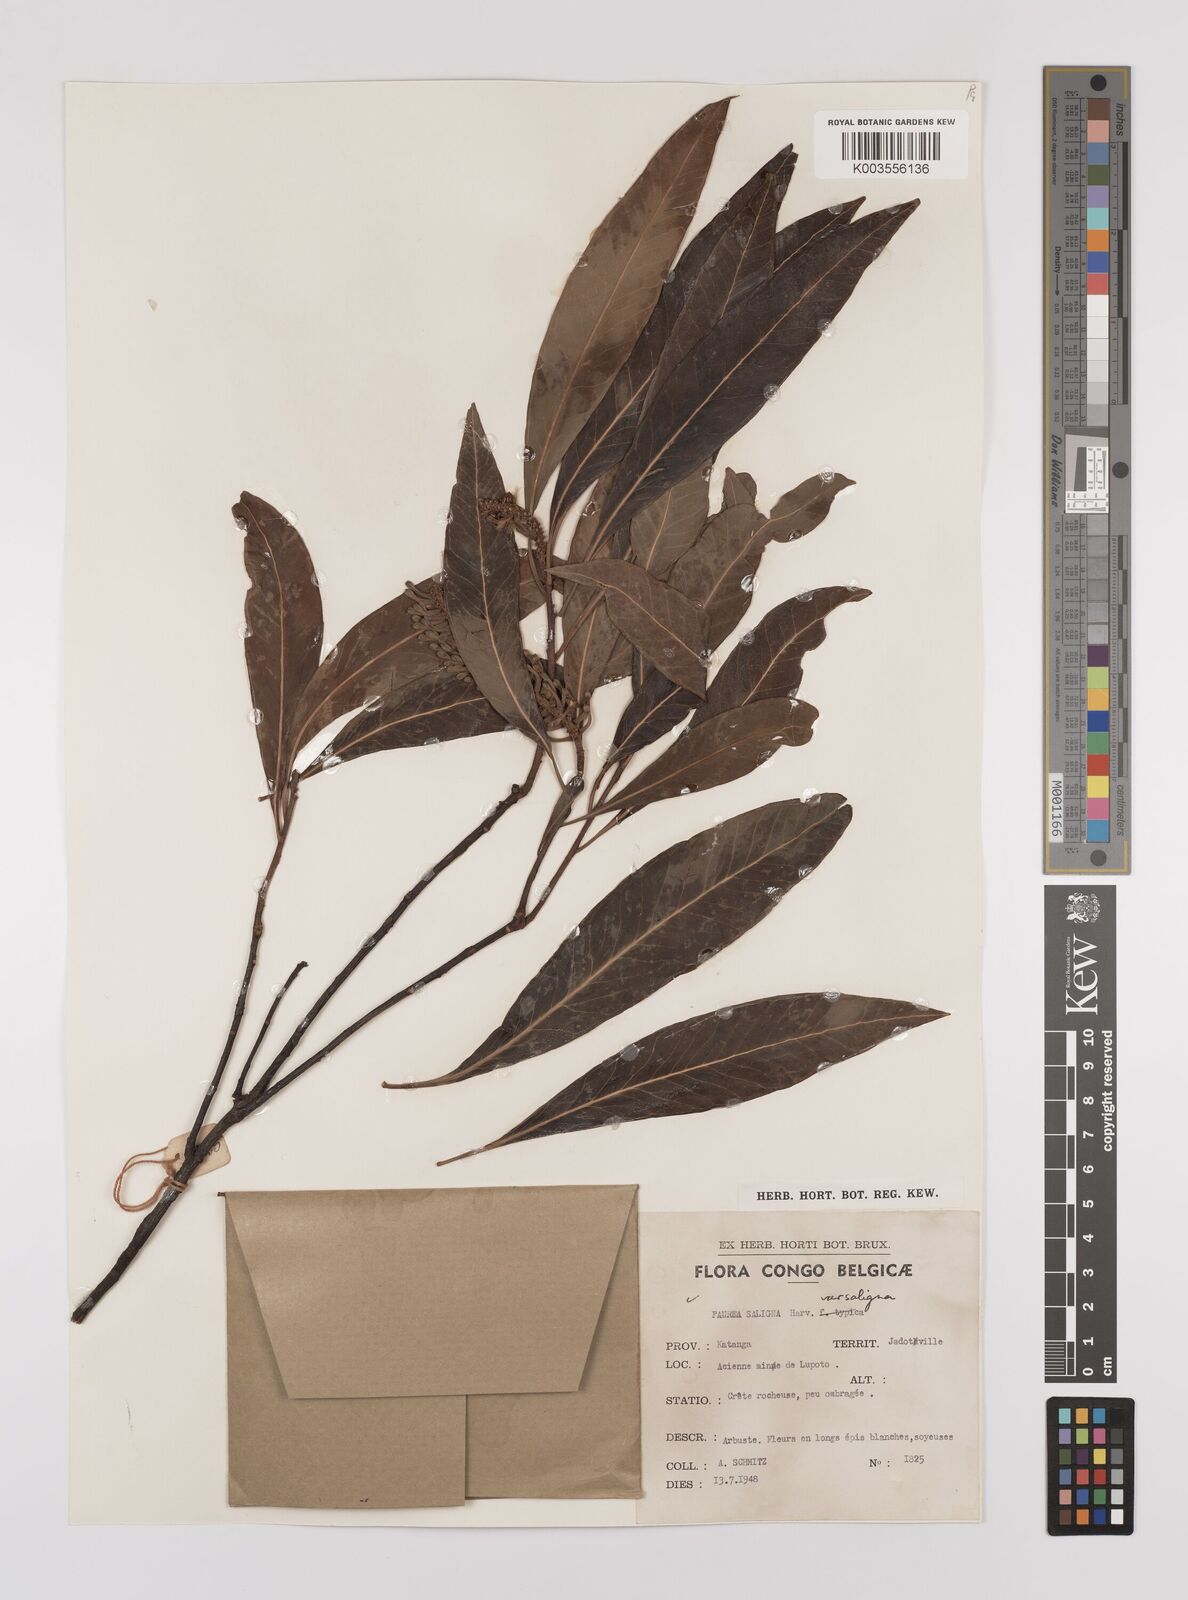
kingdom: Plantae
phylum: Tracheophyta
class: Magnoliopsida
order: Proteales
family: Proteaceae
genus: Faurea
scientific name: Faurea saligna
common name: African bean
